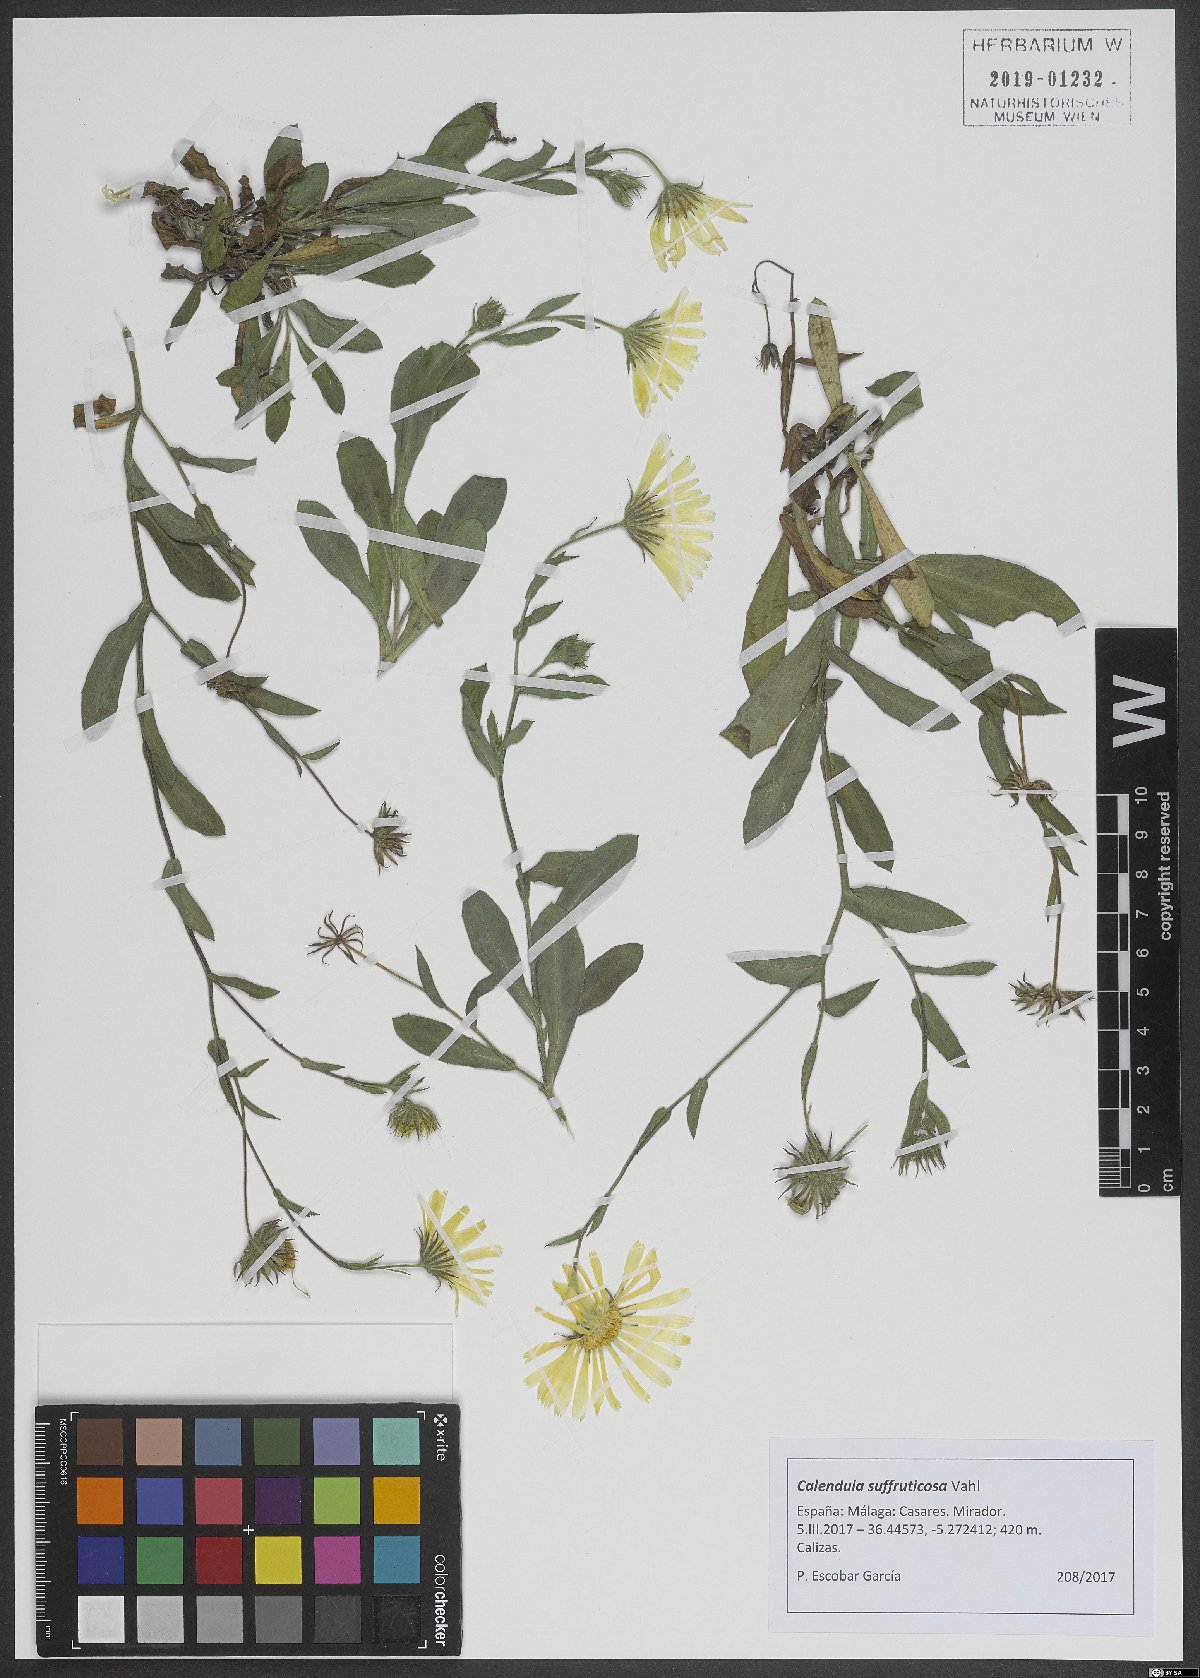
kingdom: Plantae
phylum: Tracheophyta
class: Magnoliopsida
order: Asterales
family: Asteraceae
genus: Calendula
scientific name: Calendula suffruticosa
